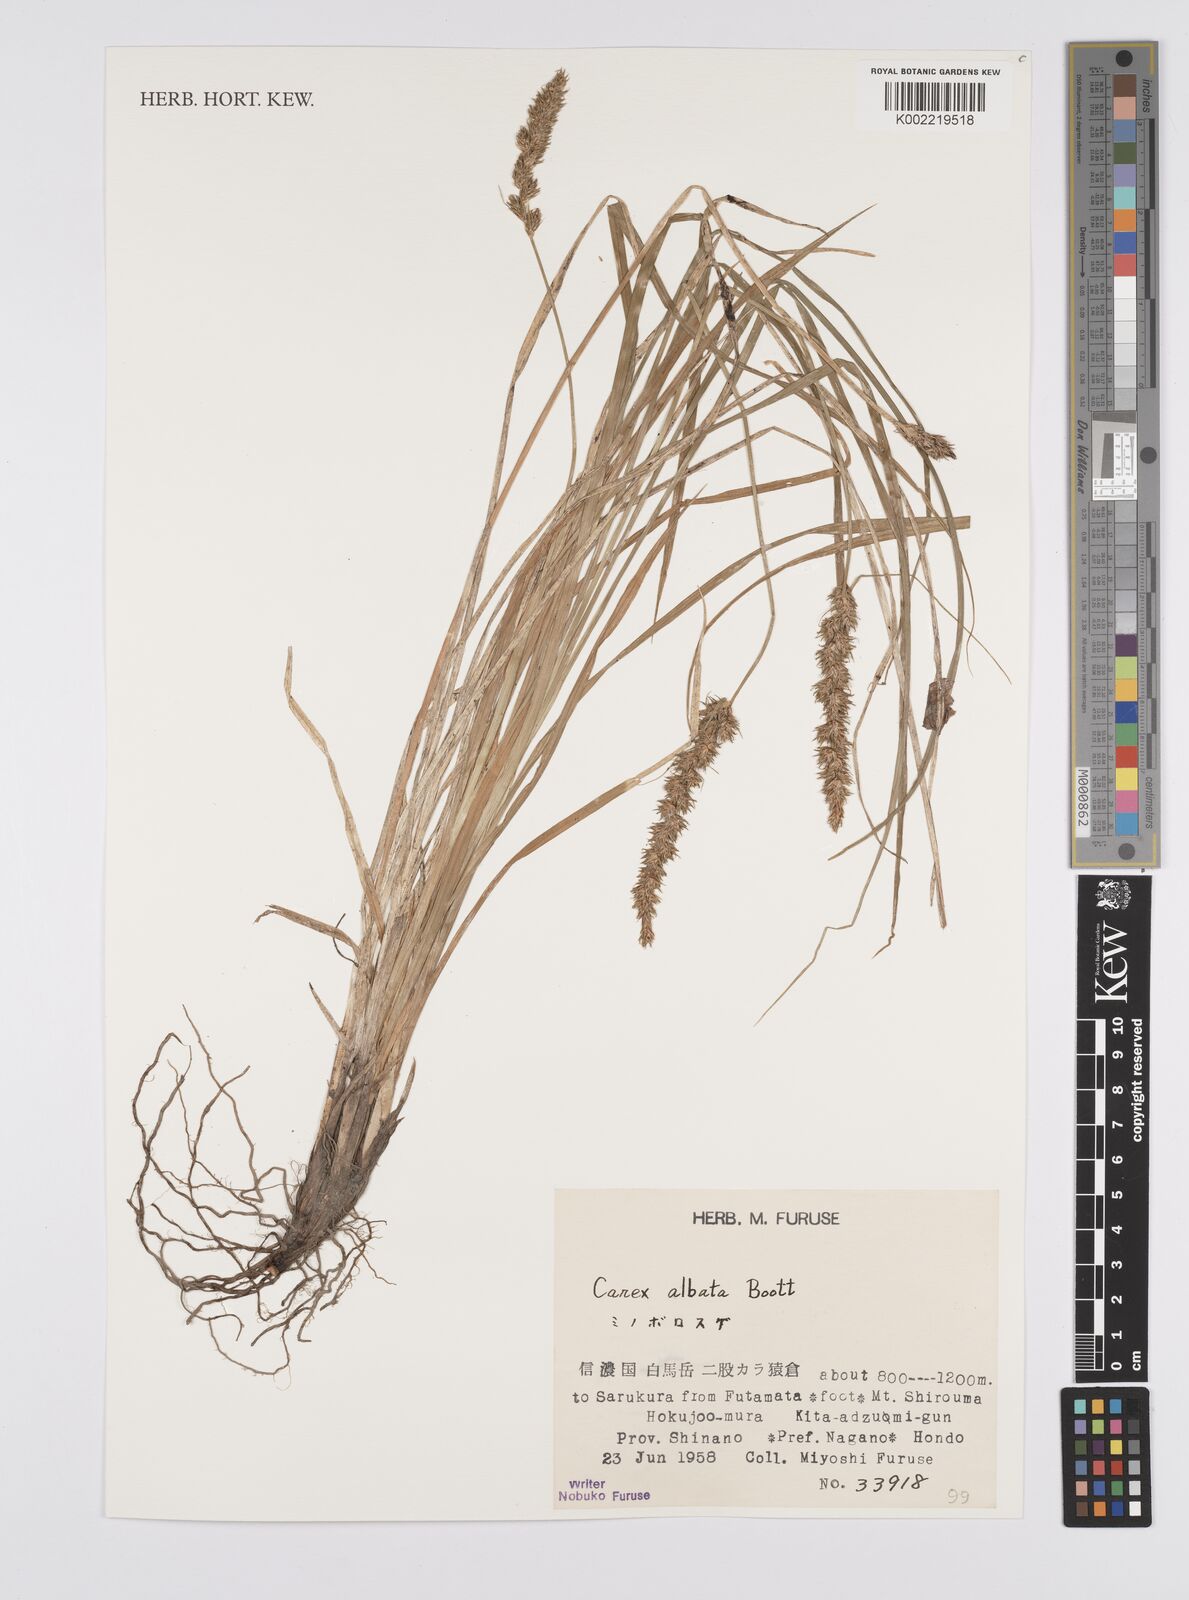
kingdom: Plantae
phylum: Tracheophyta
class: Liliopsida
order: Poales
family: Cyperaceae
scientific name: Cyperaceae
